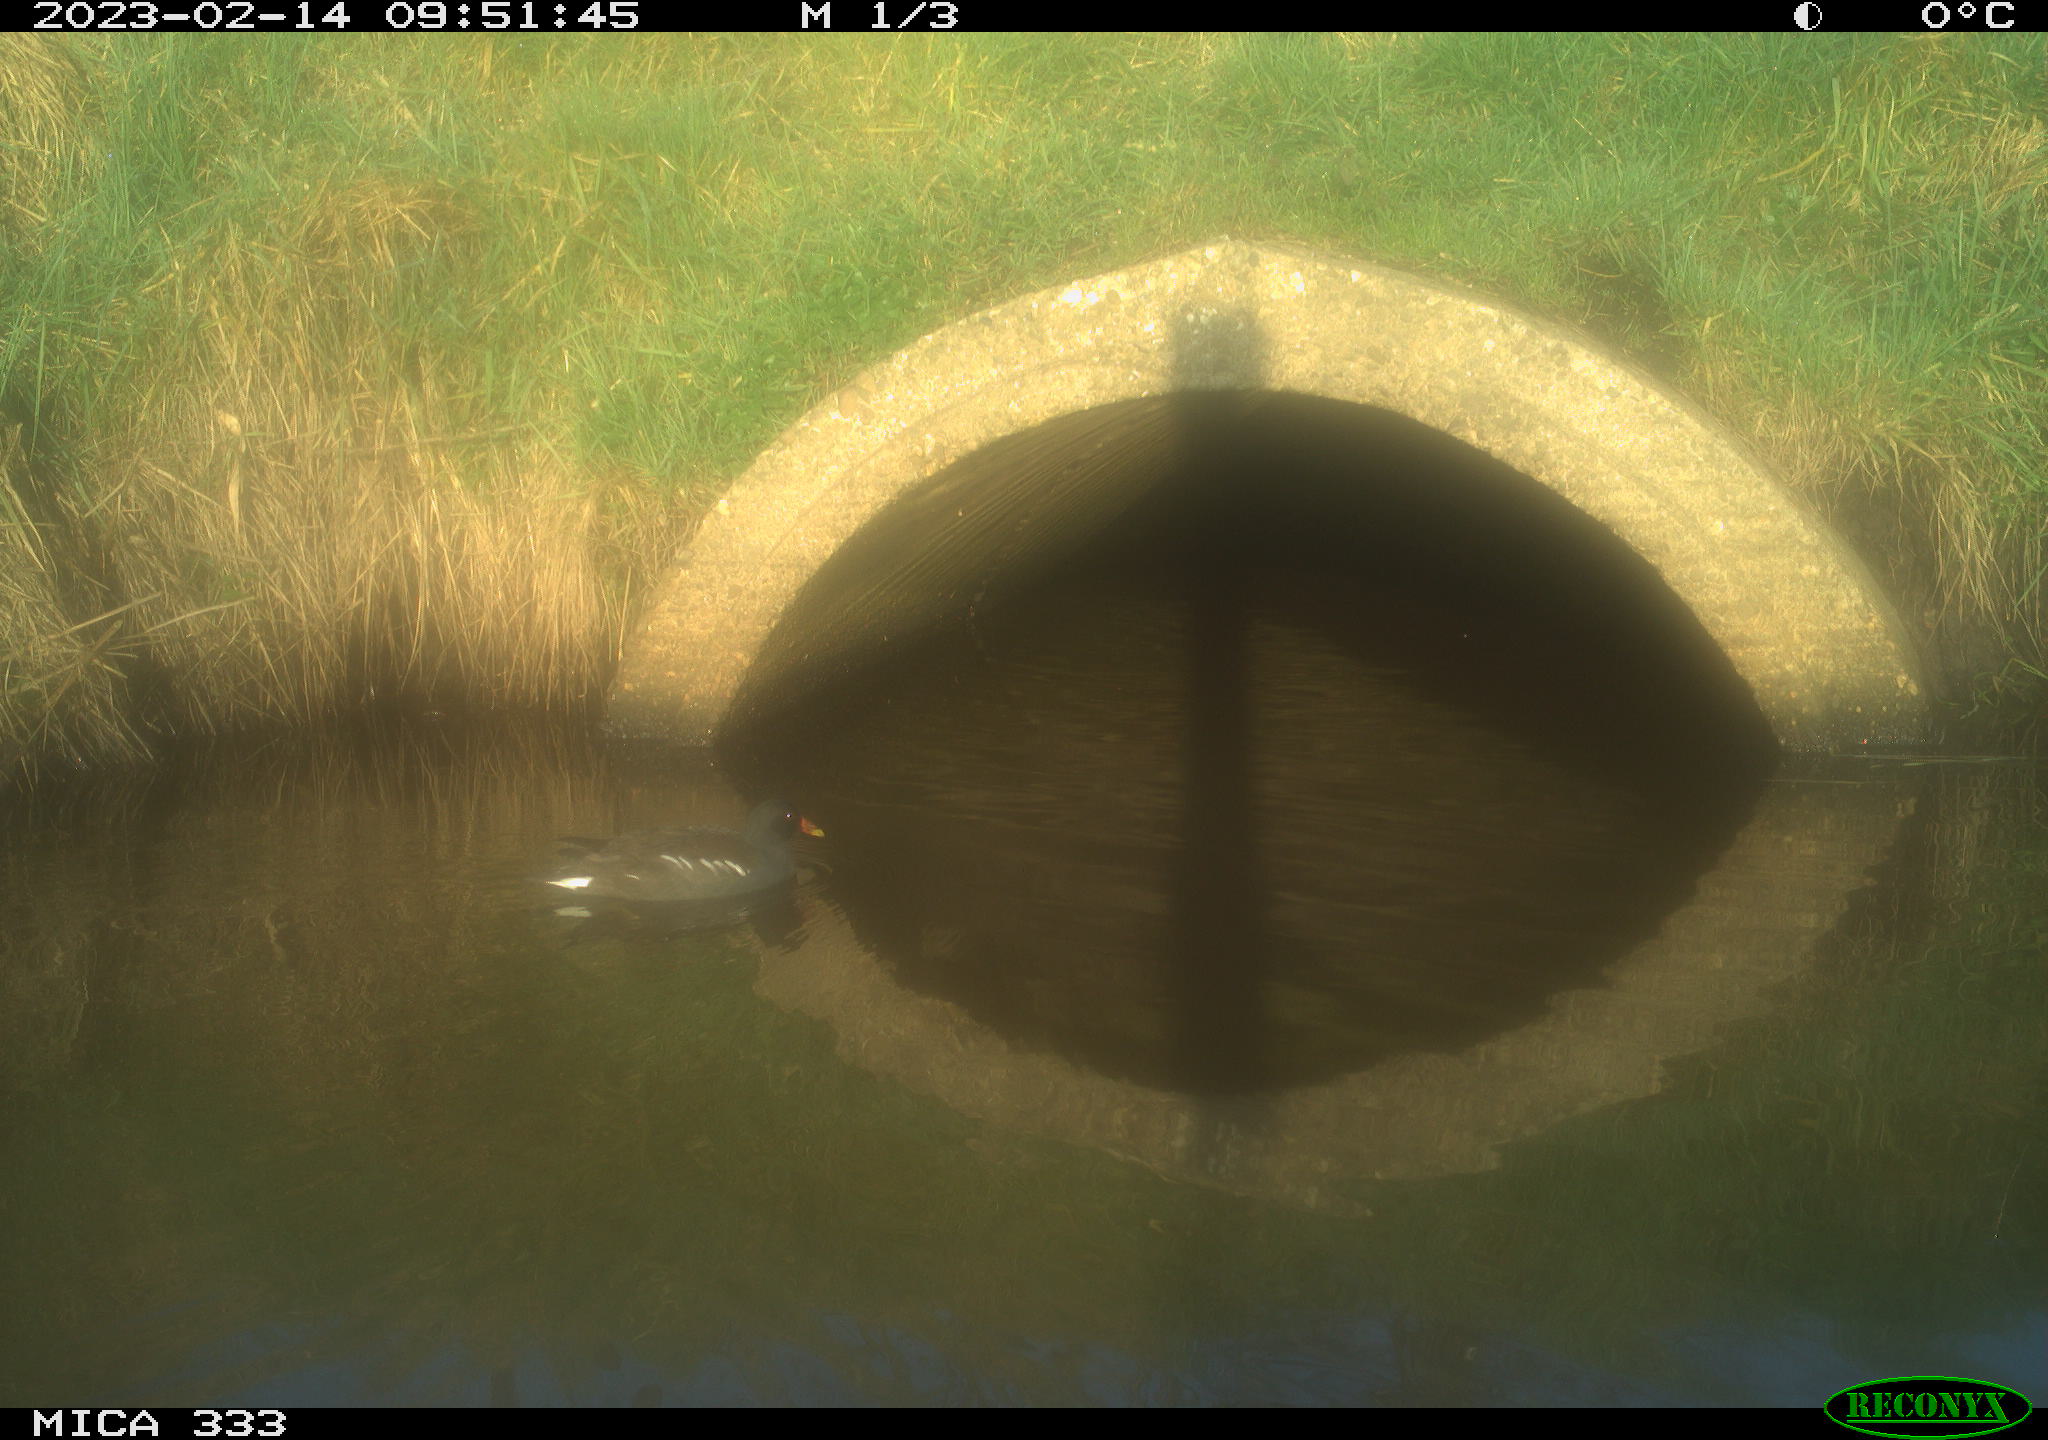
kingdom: Animalia
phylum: Chordata
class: Aves
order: Gruiformes
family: Rallidae
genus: Gallinula
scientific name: Gallinula chloropus
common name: Common moorhen
